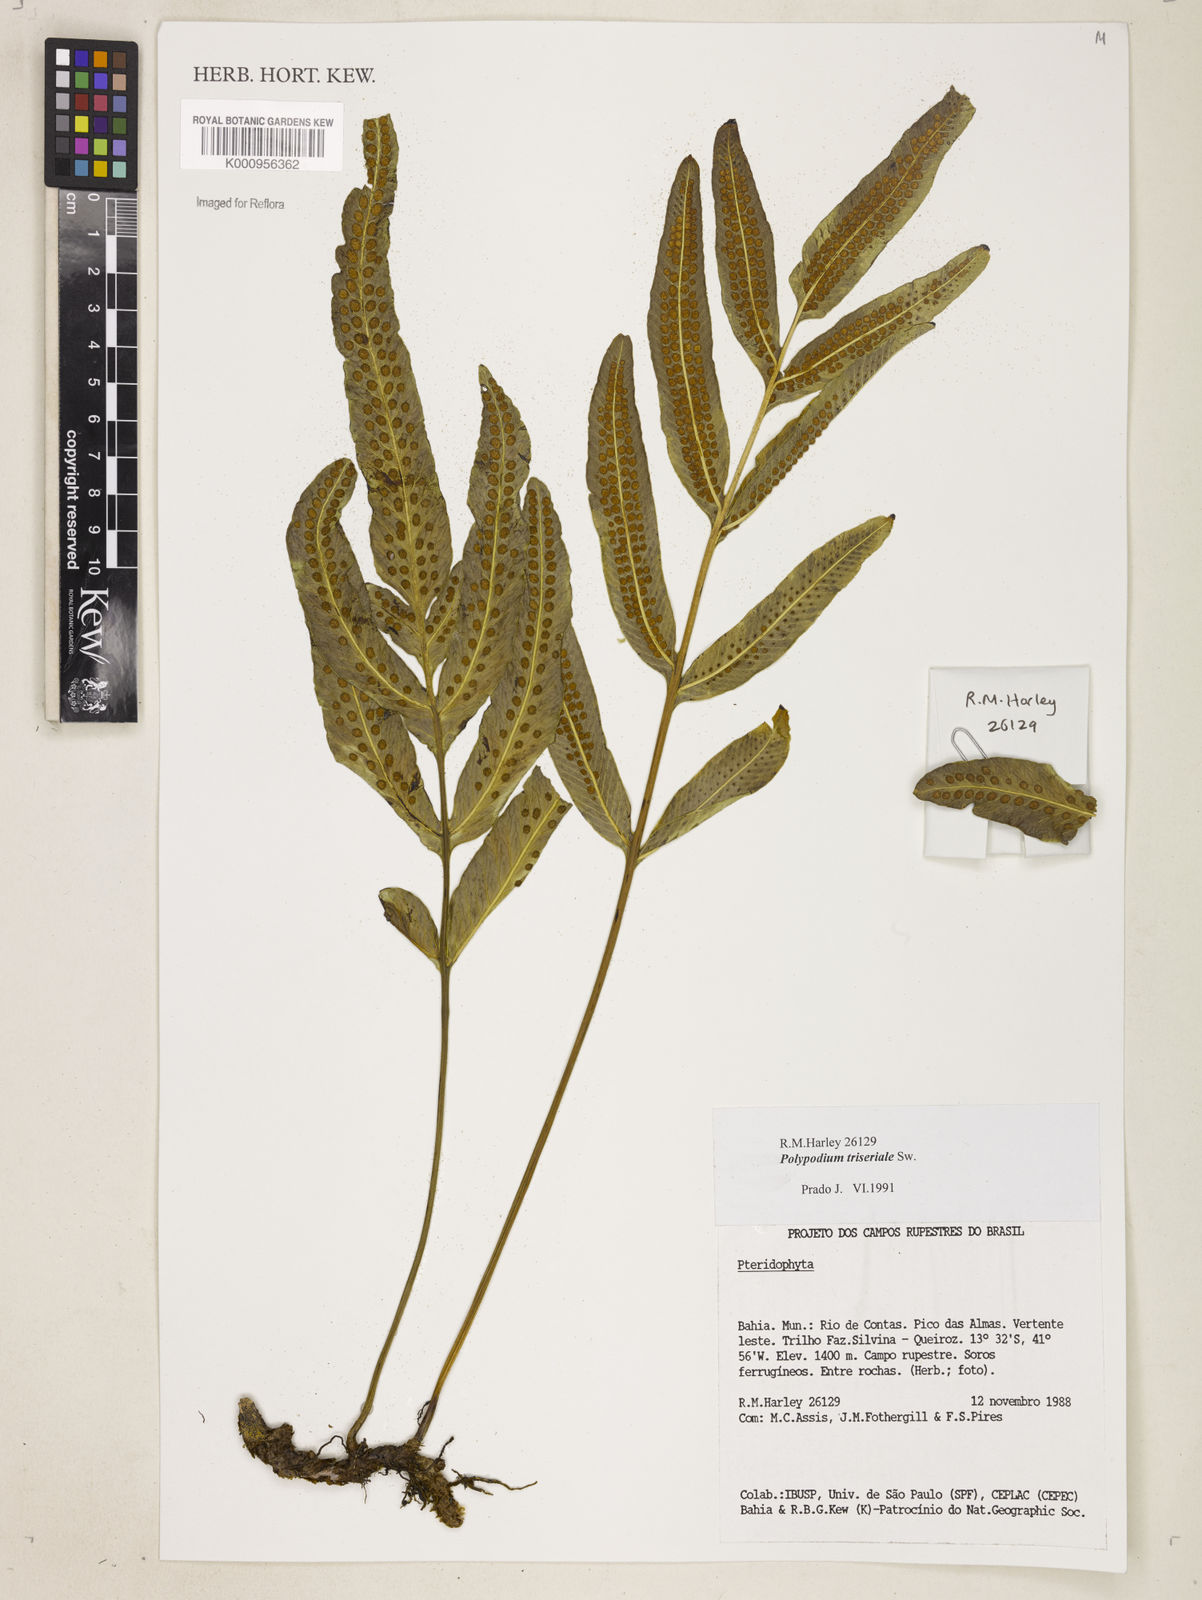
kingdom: Plantae
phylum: Tracheophyta
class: Polypodiopsida
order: Polypodiales
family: Polypodiaceae
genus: Serpocaulon
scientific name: Serpocaulon triseriale
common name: Angle-vein fern
